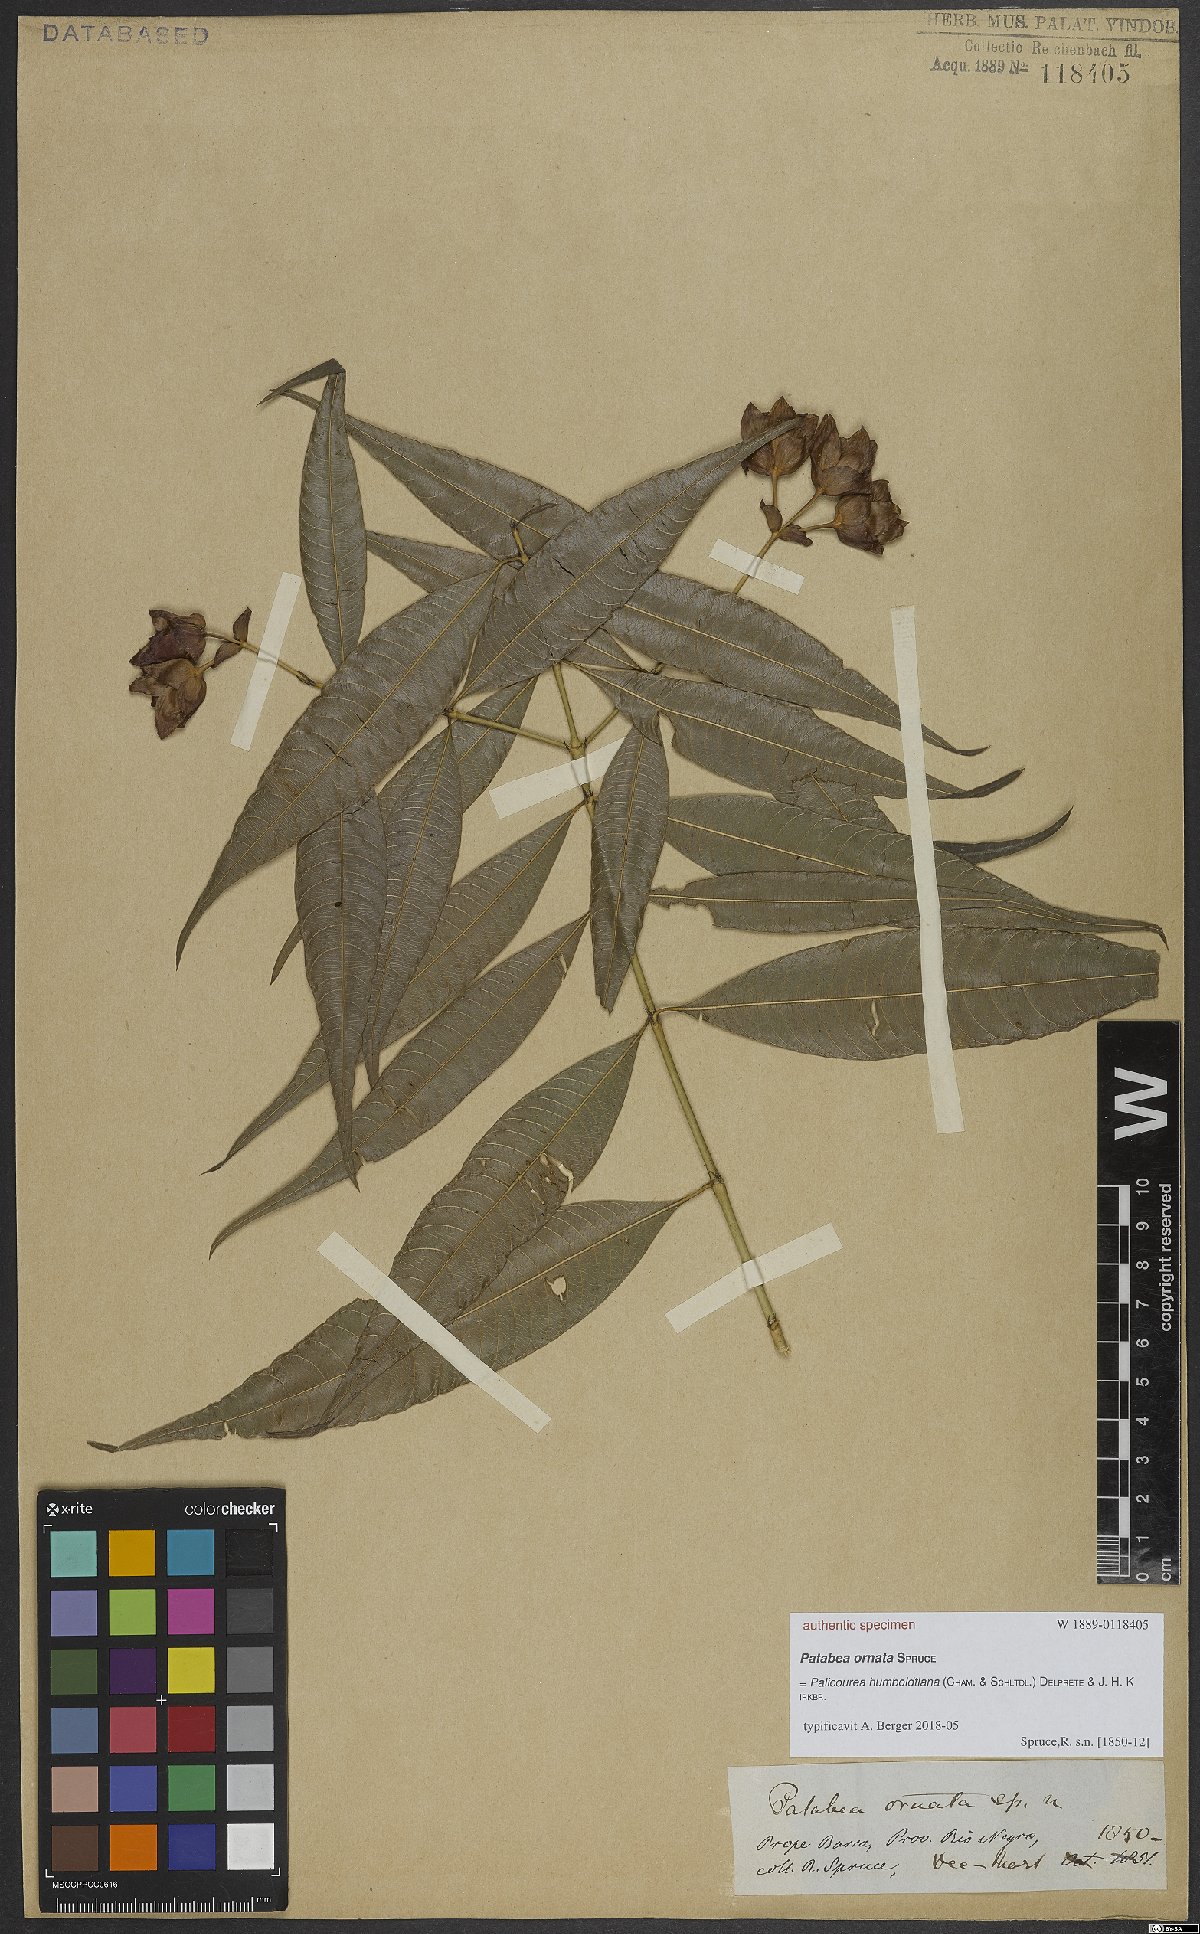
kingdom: Plantae
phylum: Tracheophyta
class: Magnoliopsida
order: Gentianales
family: Rubiaceae
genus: Palicourea
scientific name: Palicourea humboldtiana
